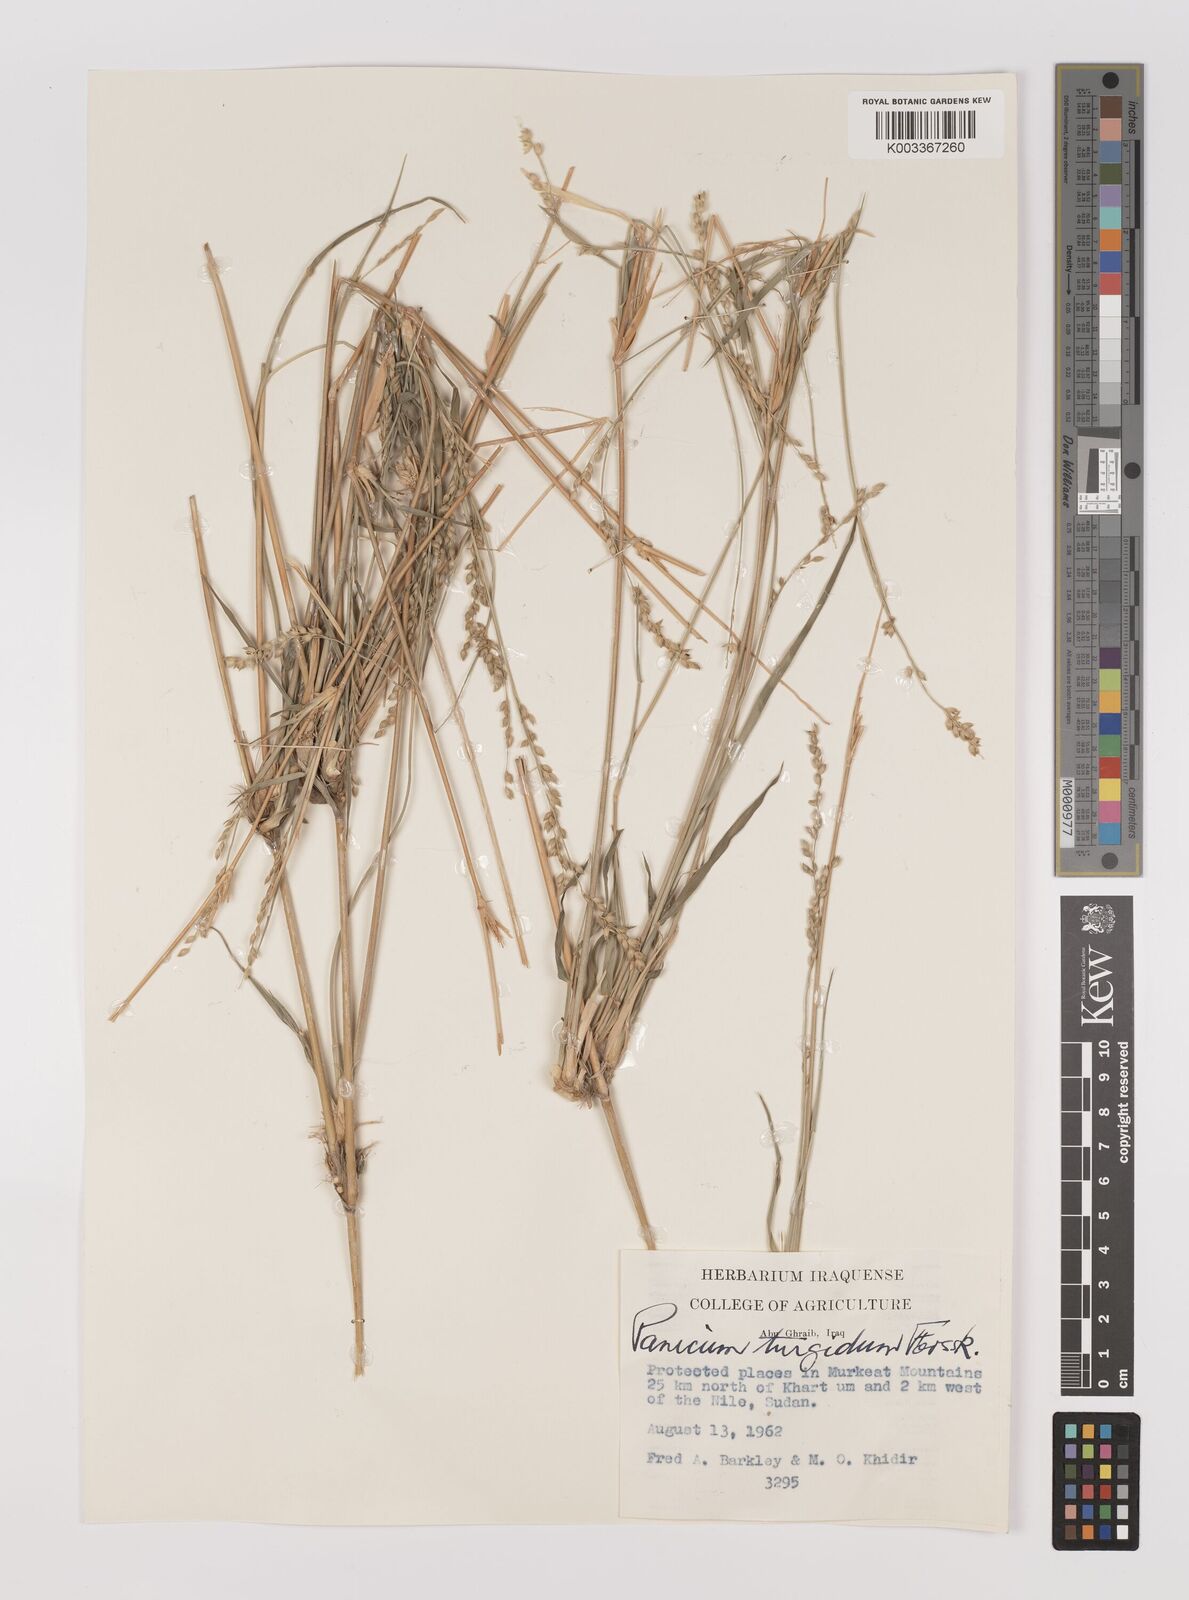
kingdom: Plantae
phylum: Tracheophyta
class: Liliopsida
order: Poales
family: Poaceae
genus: Panicum
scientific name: Panicum turgidum
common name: Desert grass
